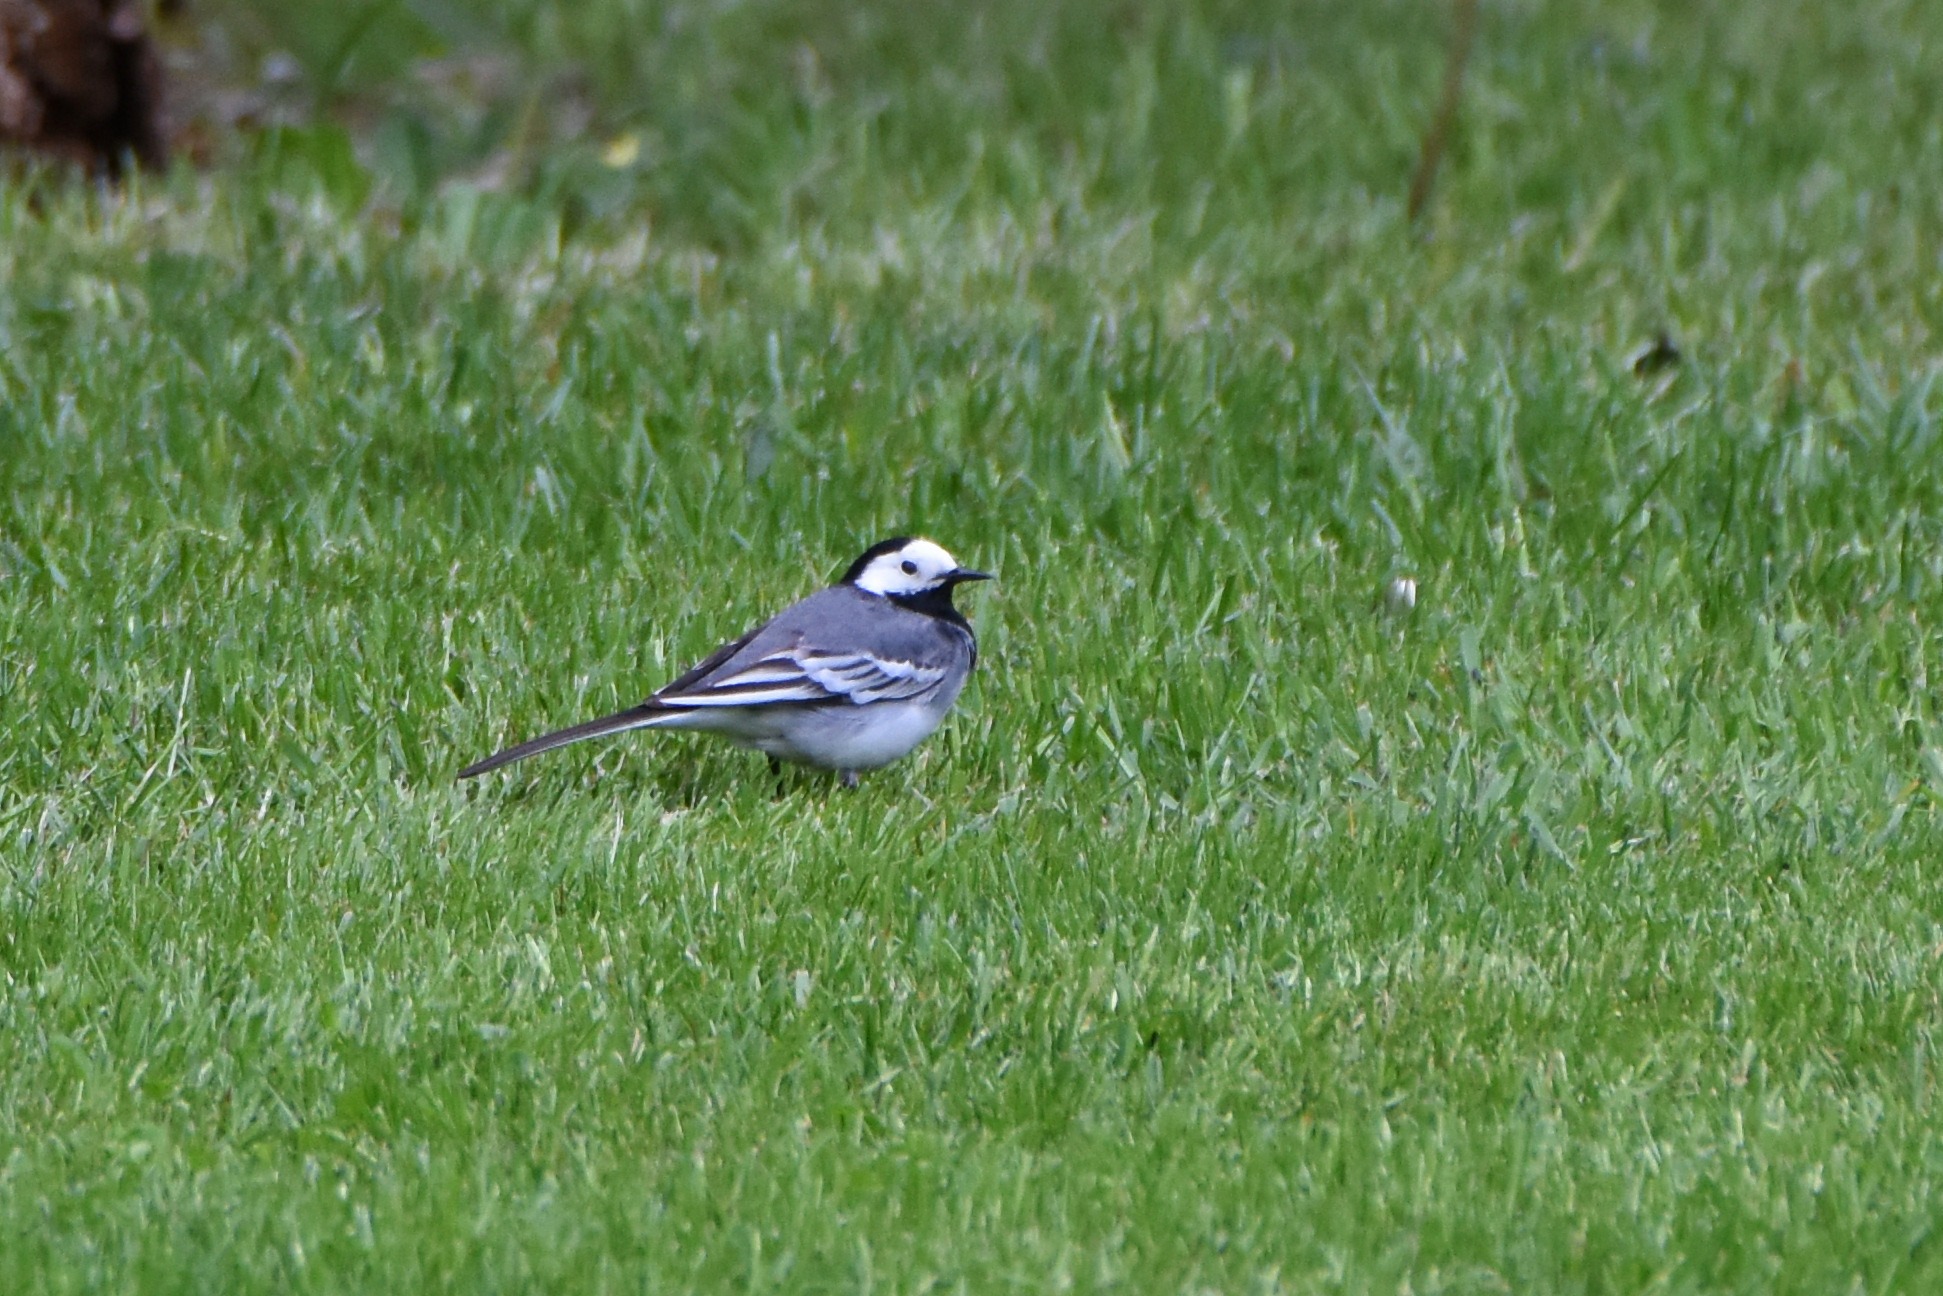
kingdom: Animalia
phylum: Chordata
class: Aves
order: Passeriformes
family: Motacillidae
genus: Motacilla
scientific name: Motacilla alba
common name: Hvid vipstjert
